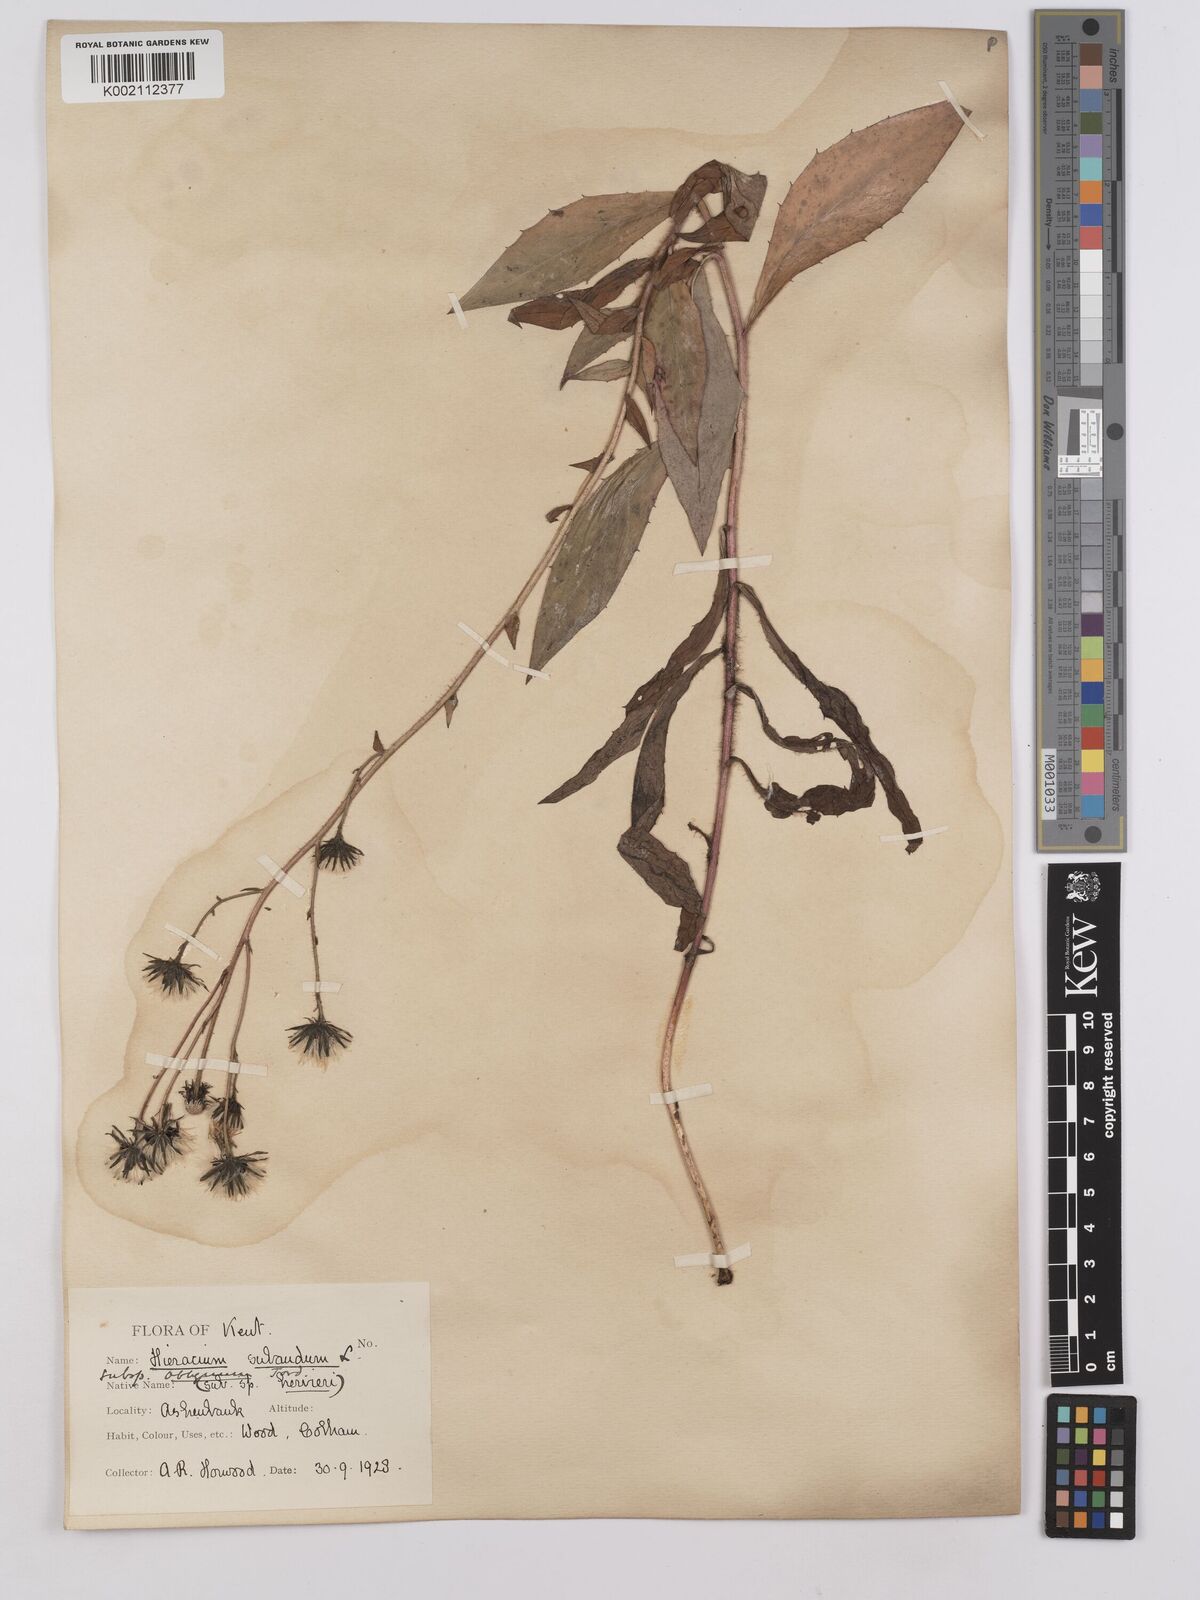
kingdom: Plantae
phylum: Tracheophyta
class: Magnoliopsida
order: Asterales
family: Asteraceae
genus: Hieracium
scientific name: Hieracium sabaudum
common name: New england hawkweed
